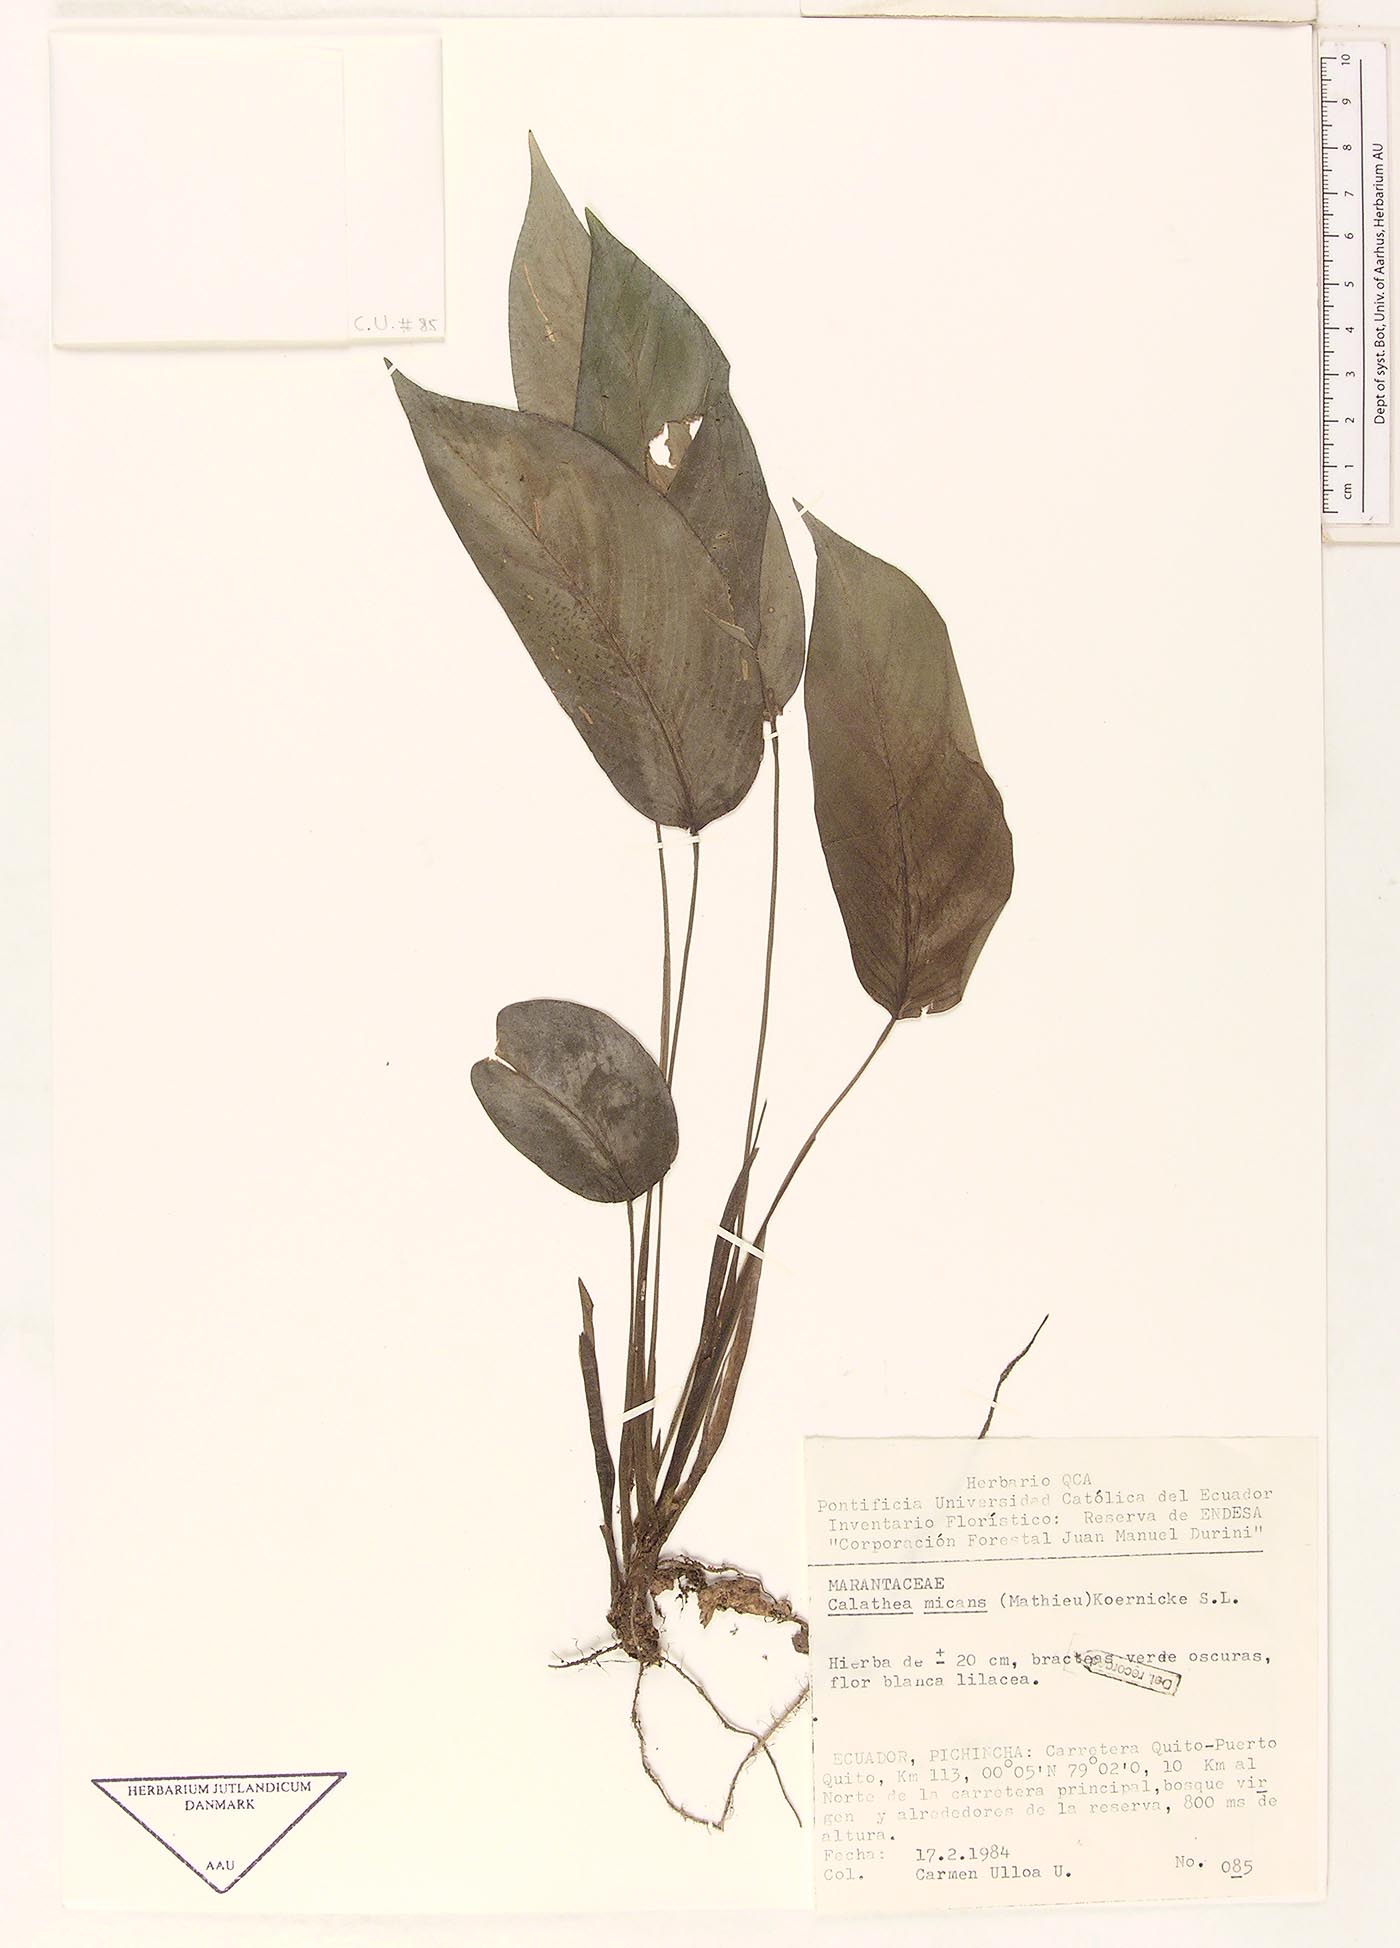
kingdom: Plantae
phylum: Tracheophyta
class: Liliopsida
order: Zingiberales
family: Marantaceae
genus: Goeppertia
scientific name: Goeppertia micans
